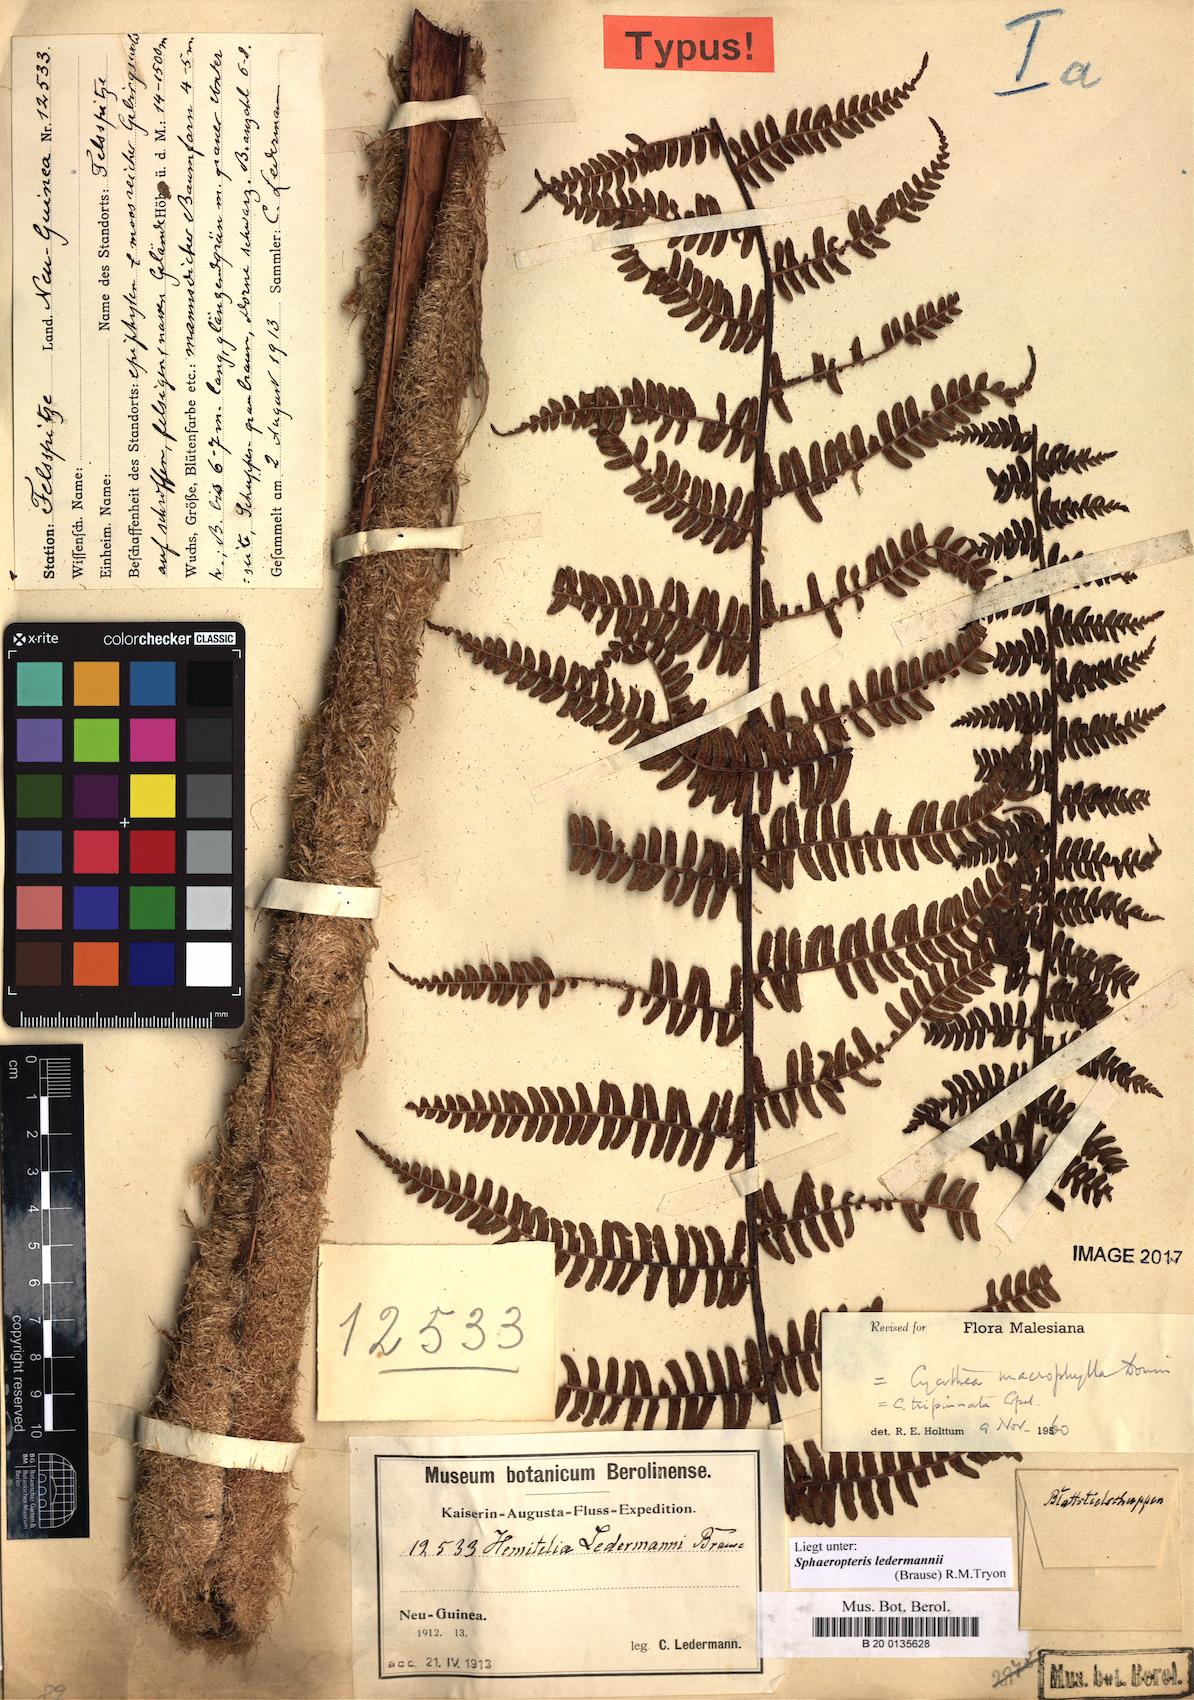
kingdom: Plantae
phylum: Tracheophyta
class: Polypodiopsida
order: Cyatheales
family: Cyatheaceae
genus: Sphaeropteris
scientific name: Sphaeropteris ledermannii
